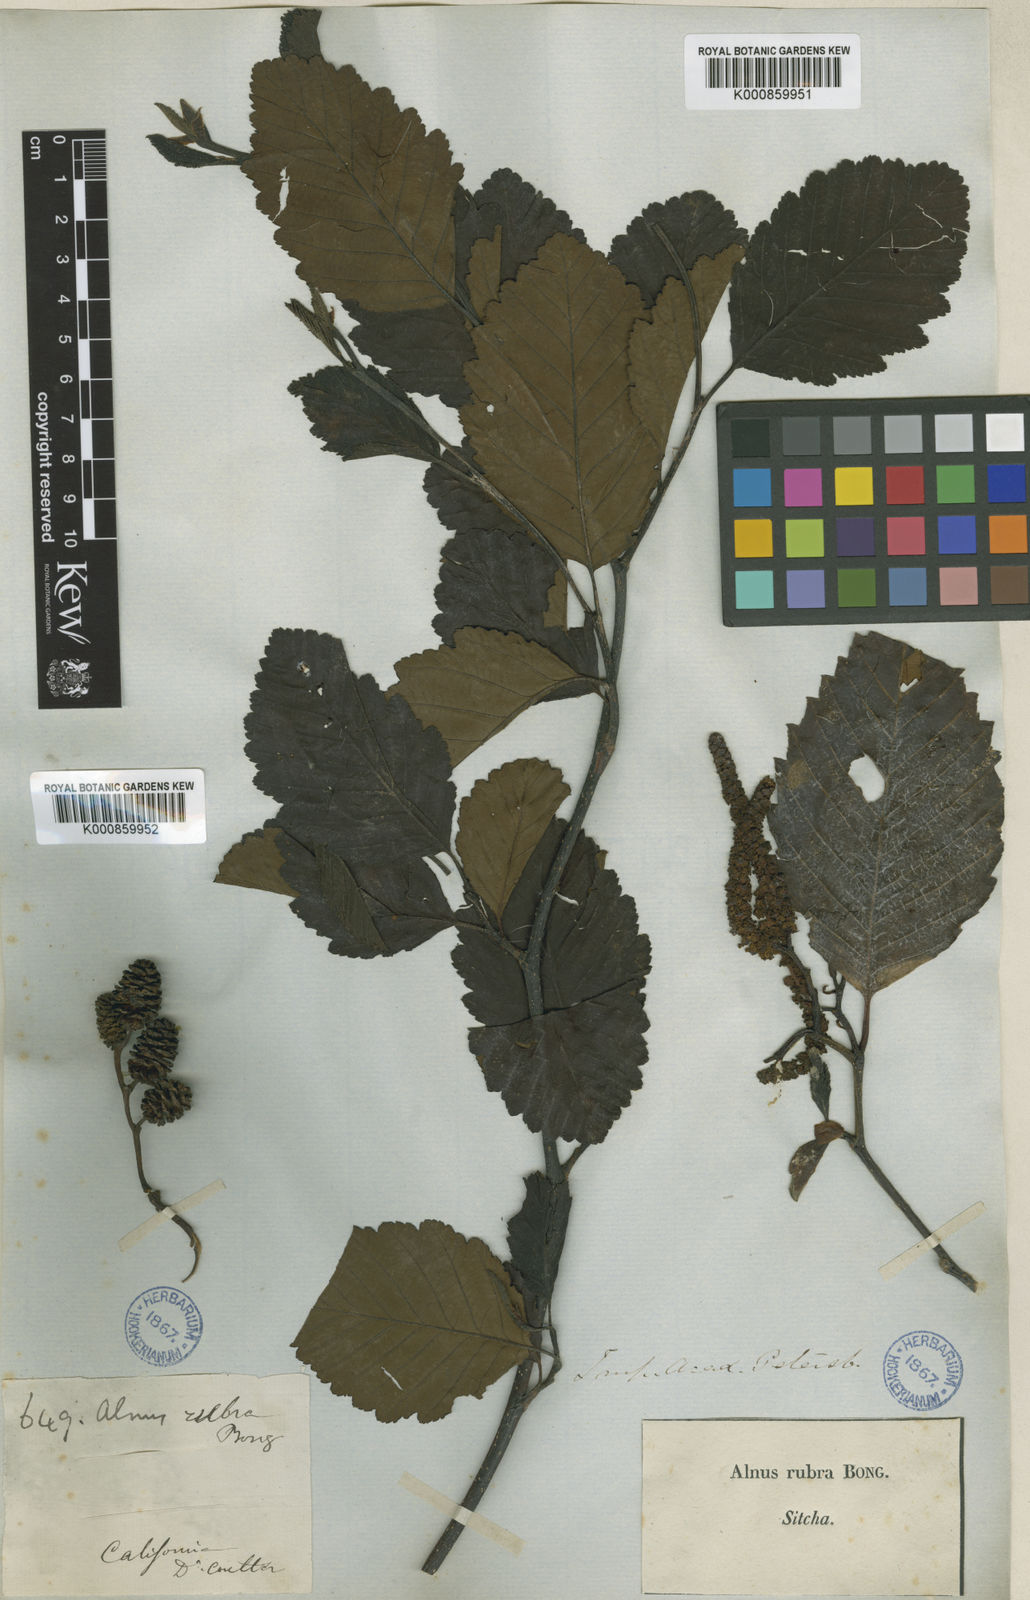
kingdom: Plantae
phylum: Tracheophyta
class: Magnoliopsida
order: Fagales
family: Betulaceae
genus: Alnus
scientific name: Alnus rubra
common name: Red alder
